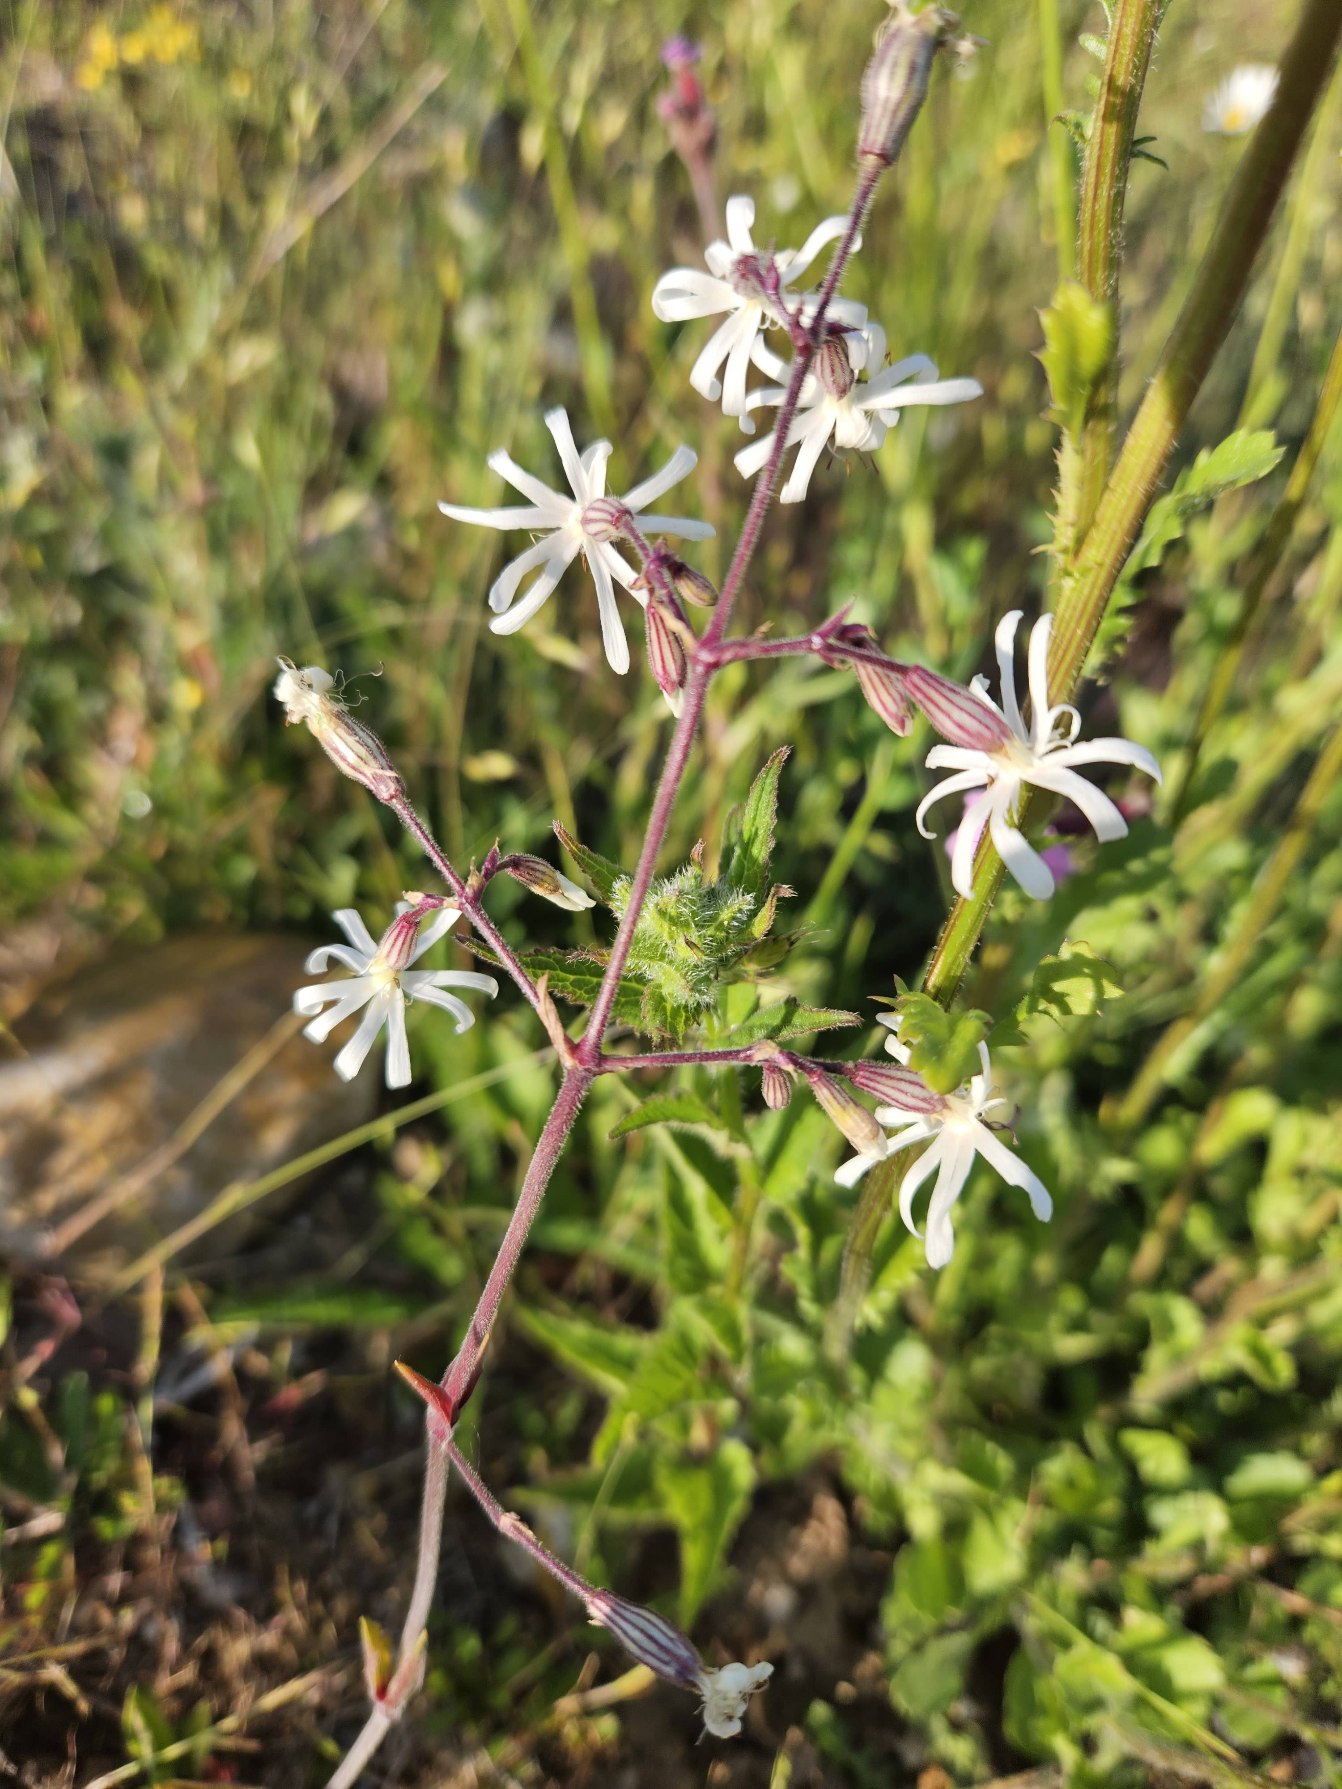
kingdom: Plantae
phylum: Tracheophyta
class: Magnoliopsida
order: Caryophyllales
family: Caryophyllaceae
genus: Silene
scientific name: Silene nutans
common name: Nikkende limurt
